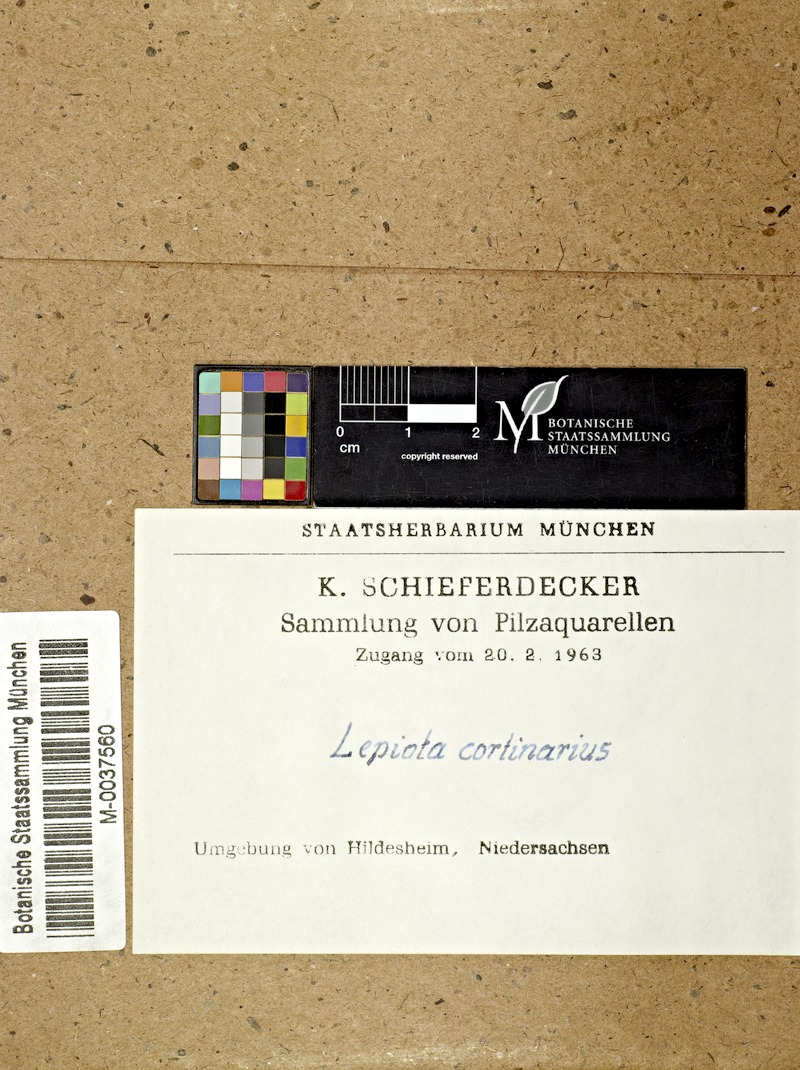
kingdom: Fungi
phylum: Basidiomycota
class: Agaricomycetes
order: Agaricales
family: Agaricaceae
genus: Lepiota
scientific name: Lepiota cortinarius
